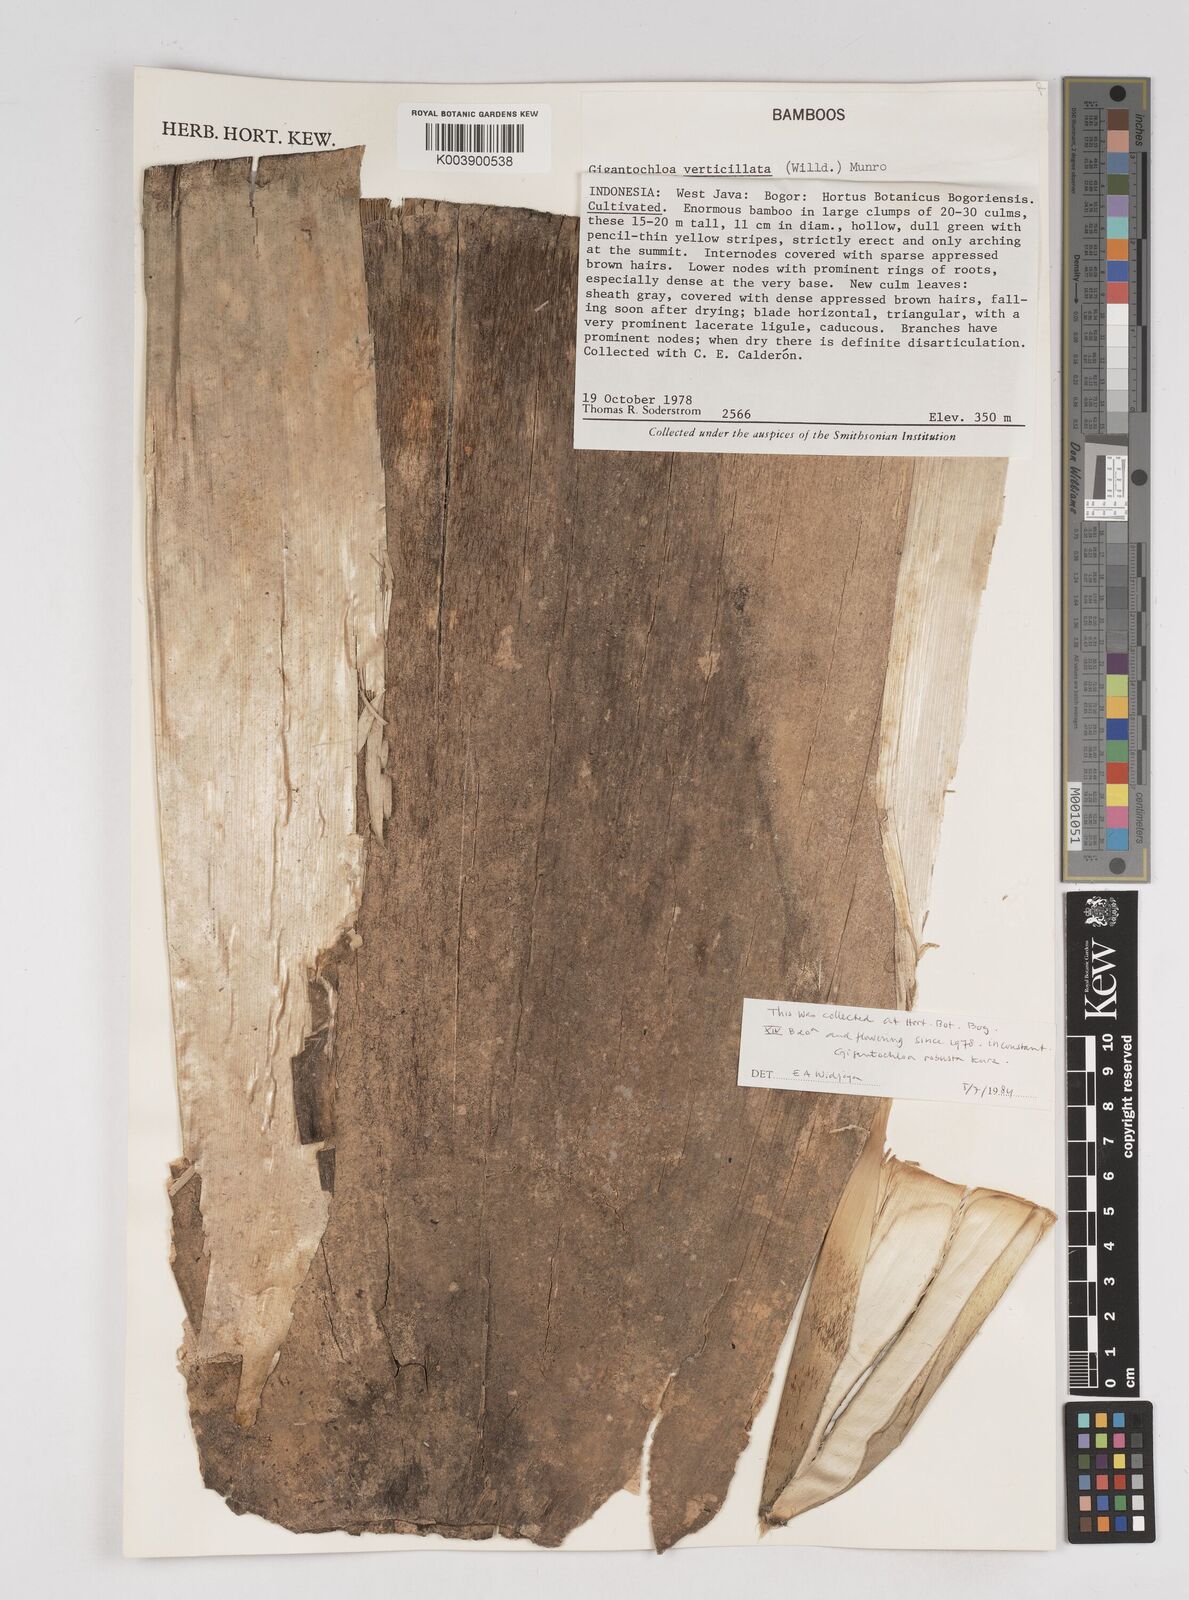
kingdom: Plantae
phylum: Tracheophyta
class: Liliopsida
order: Poales
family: Poaceae
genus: Gigantochloa
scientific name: Gigantochloa robusta
